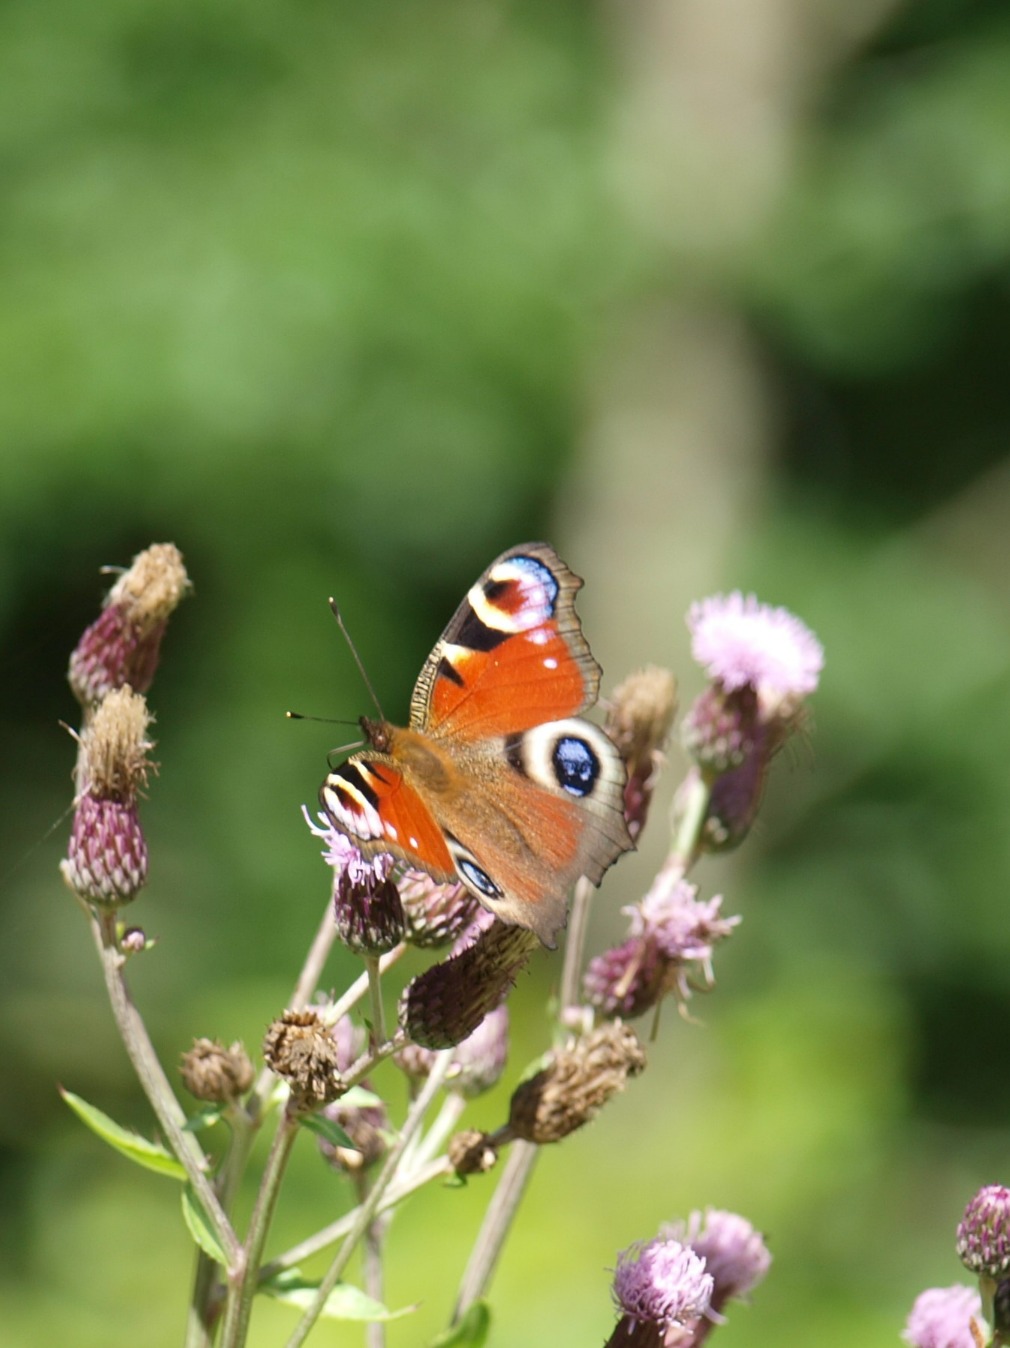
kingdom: Animalia
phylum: Arthropoda
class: Insecta
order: Lepidoptera
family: Nymphalidae
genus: Aglais
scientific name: Aglais io
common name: Dagpåfugleøje
